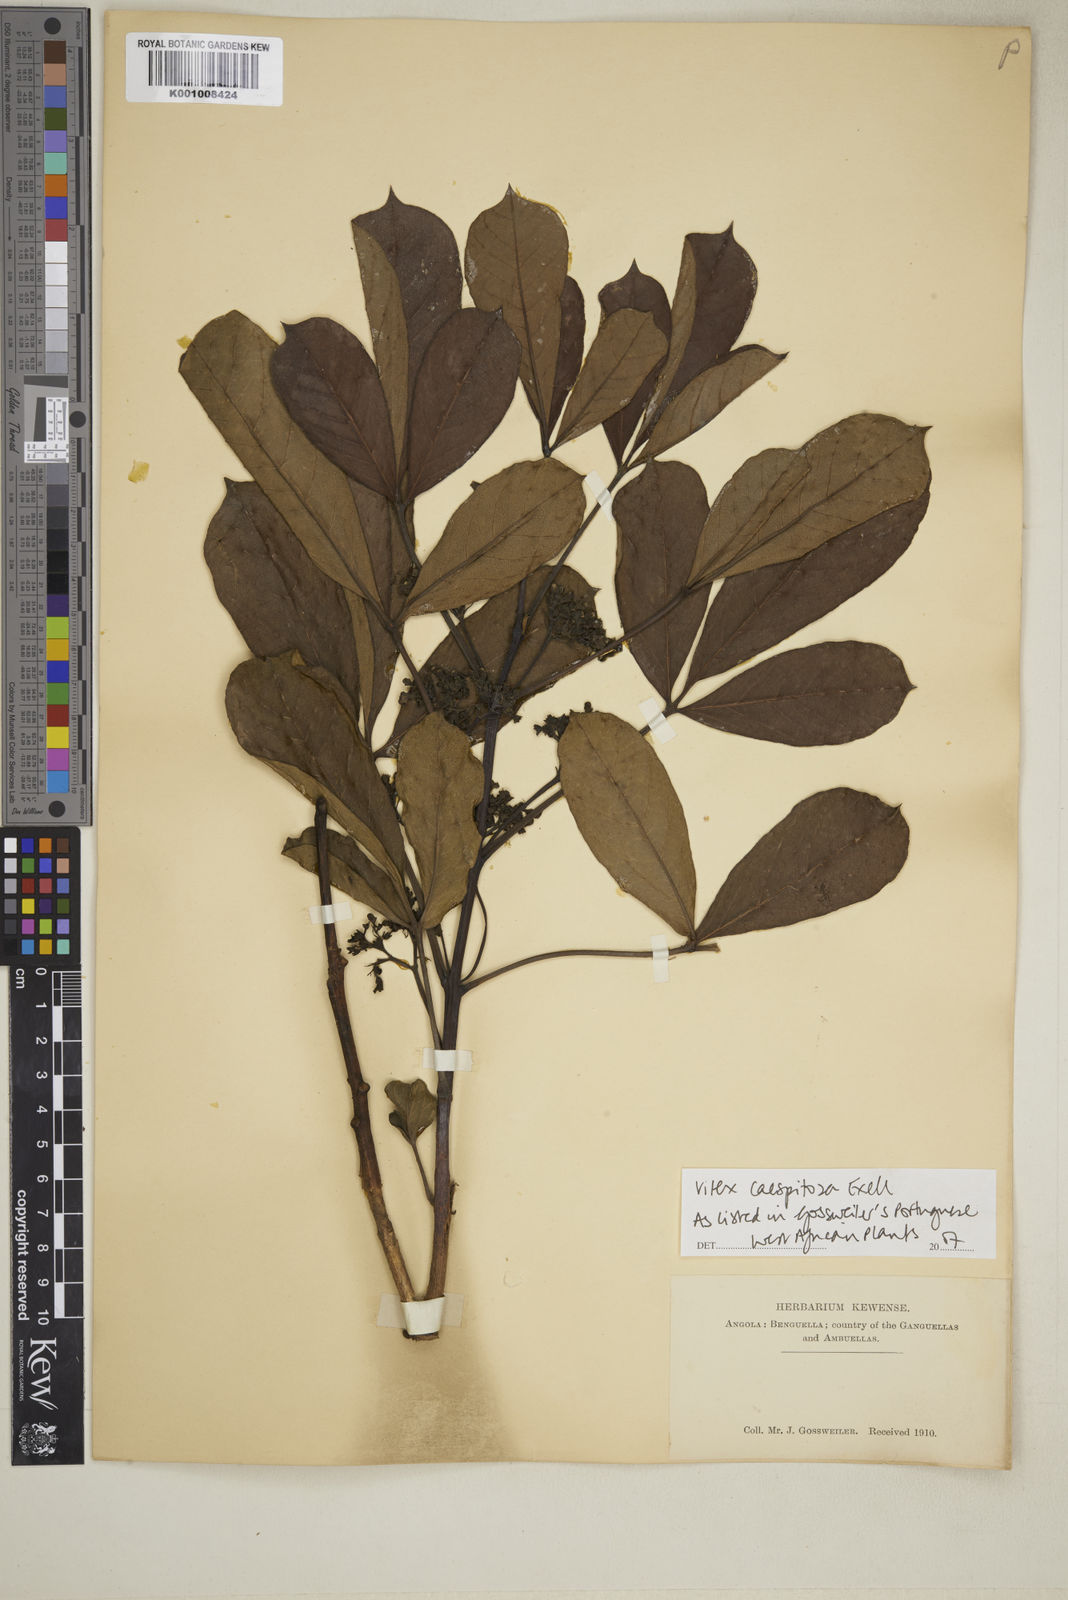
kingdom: Plantae
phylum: Tracheophyta
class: Magnoliopsida
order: Lamiales
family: Lamiaceae
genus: Vitex
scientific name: Vitex caespitosa
